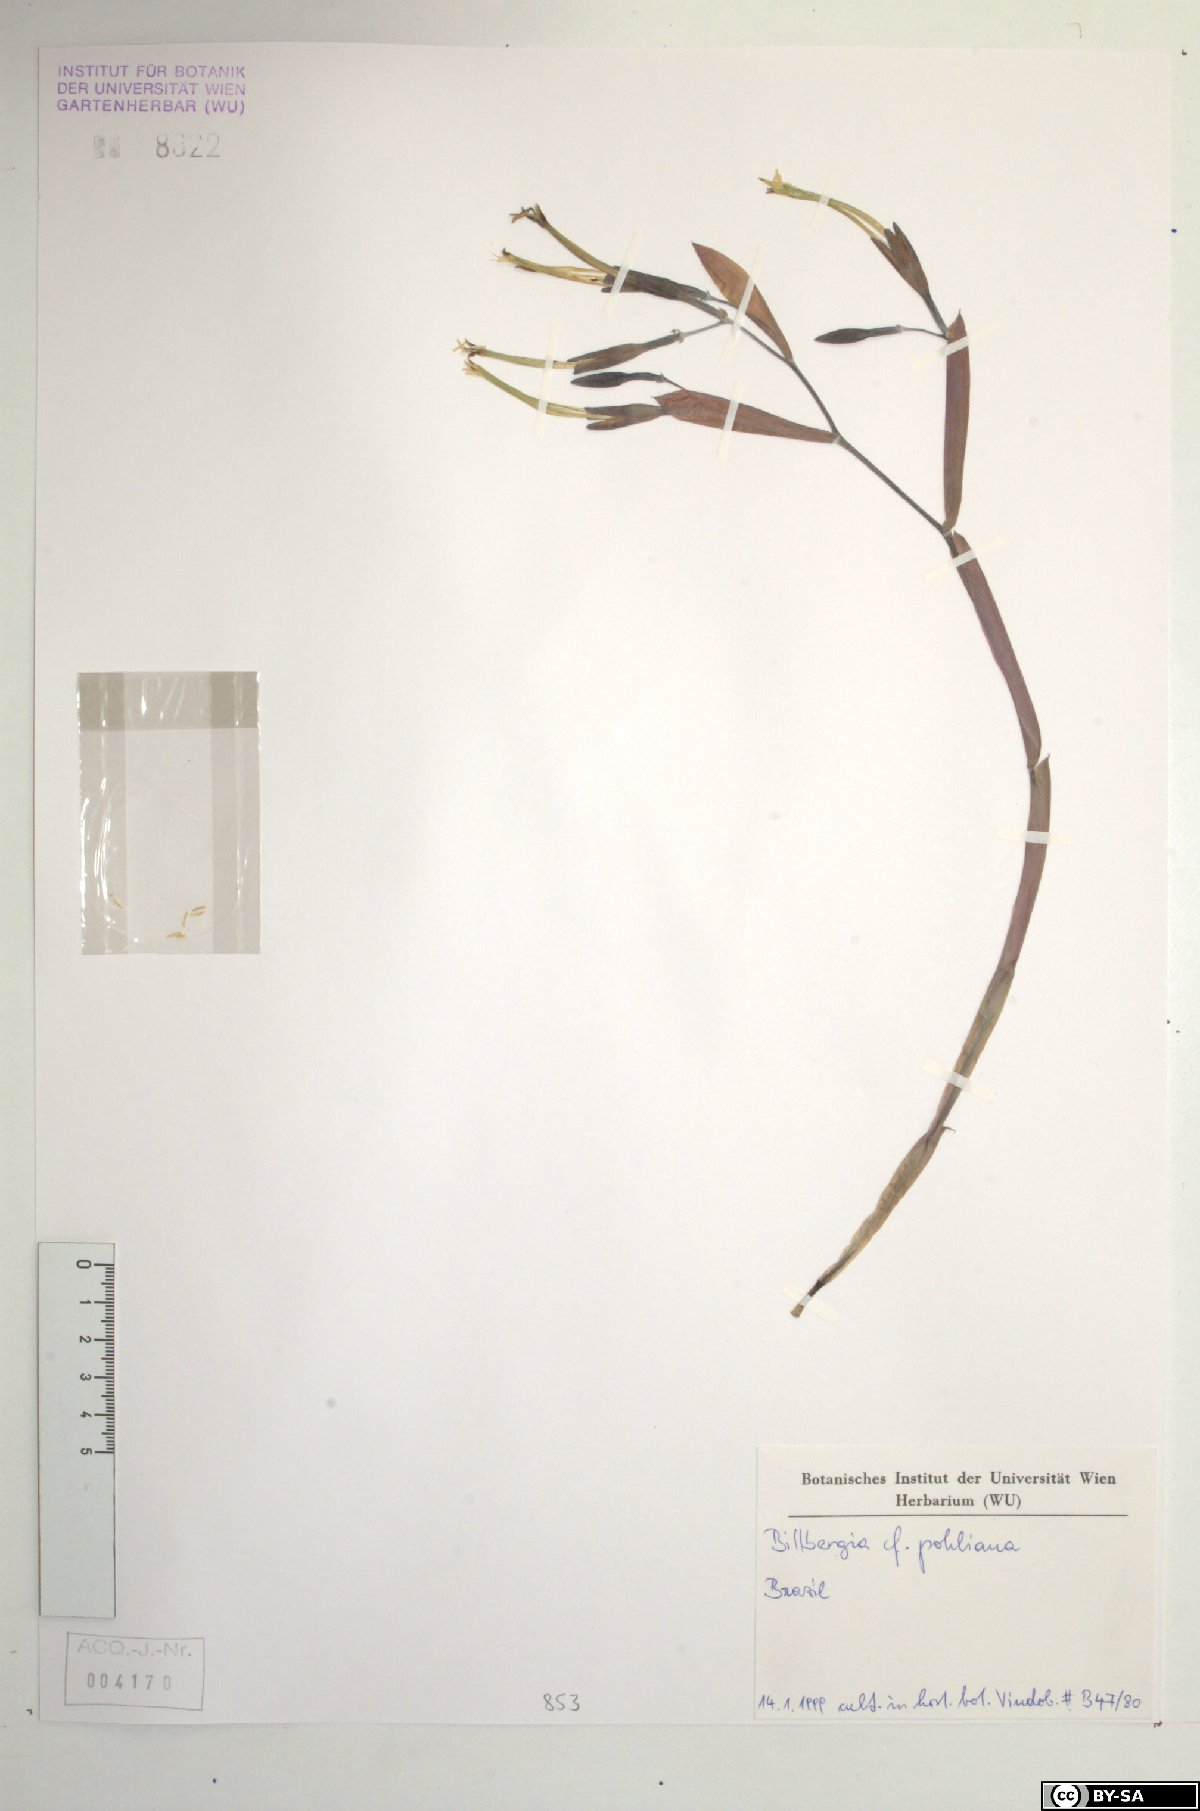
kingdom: Plantae
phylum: Tracheophyta
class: Liliopsida
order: Poales
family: Bromeliaceae
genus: Billbergia
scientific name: Billbergia pohliana
